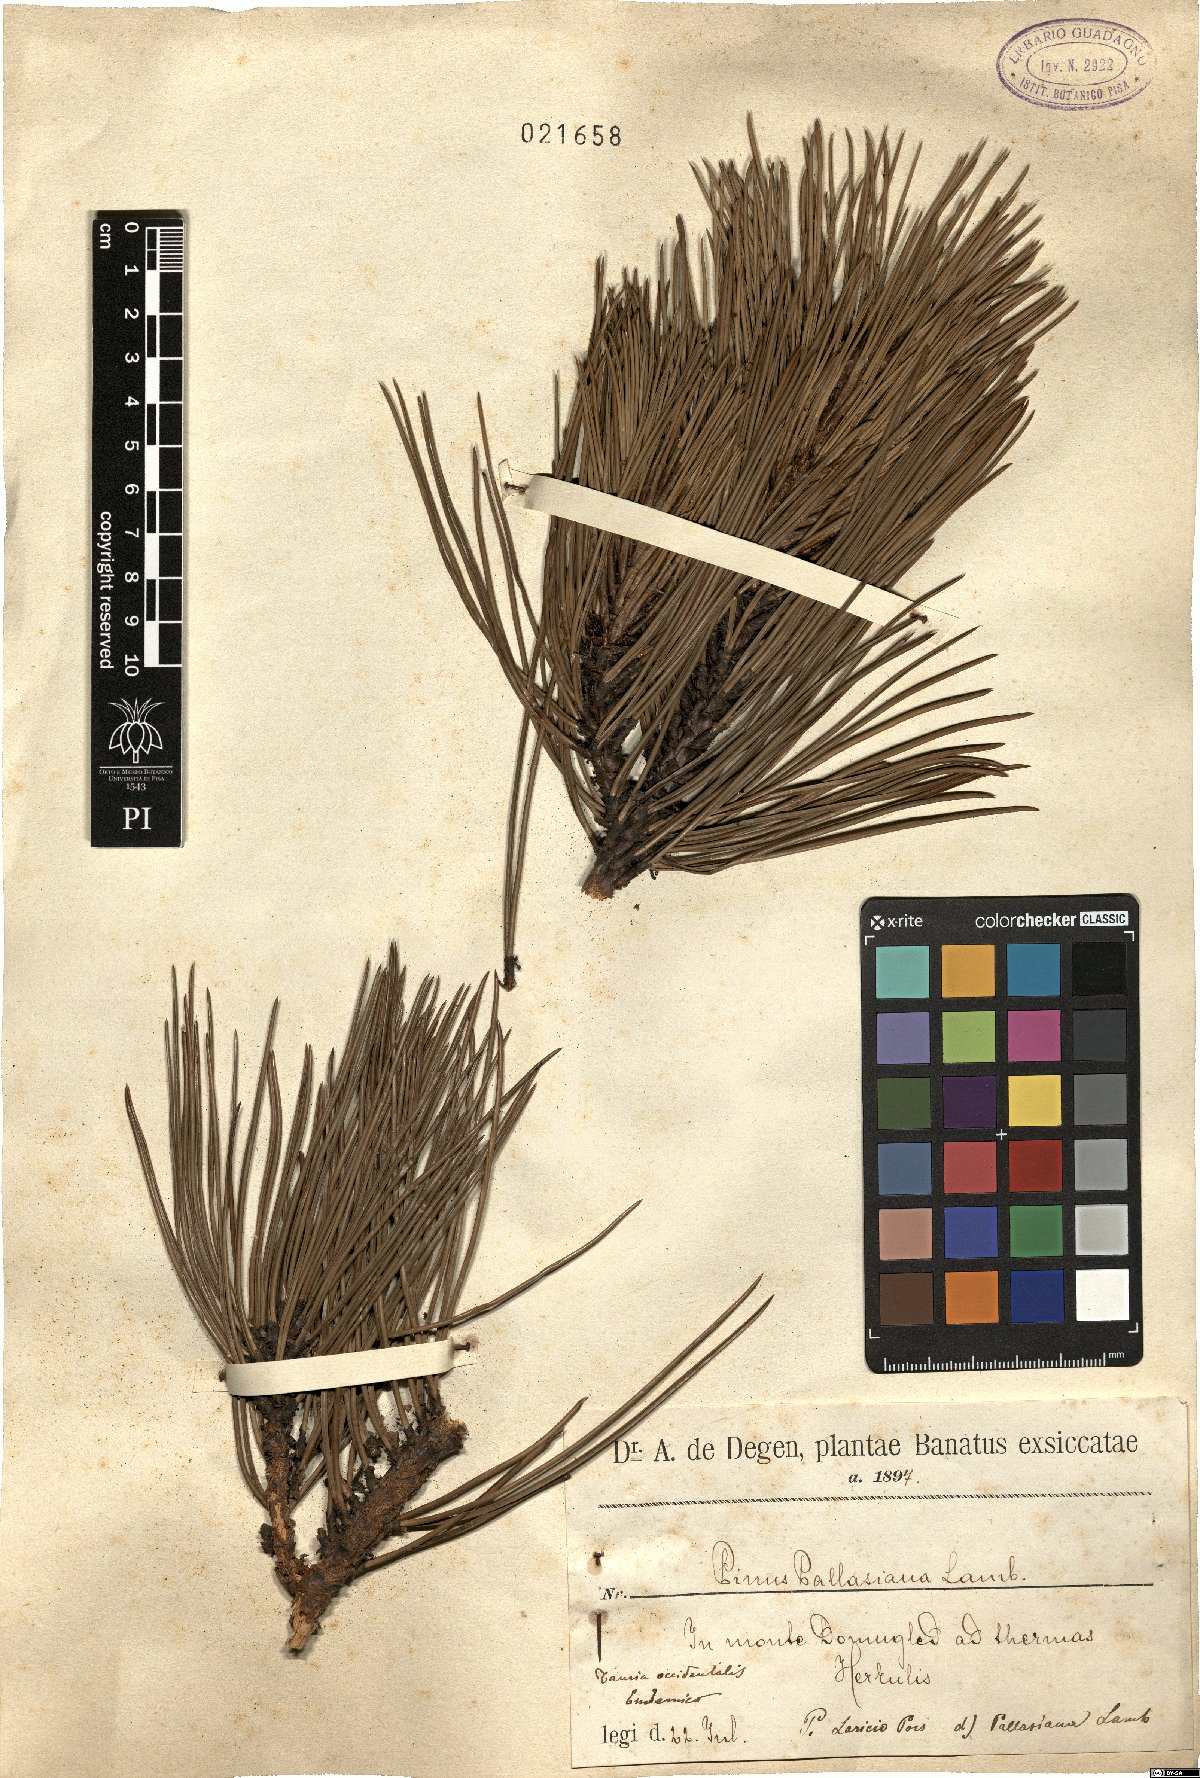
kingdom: Plantae
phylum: Tracheophyta
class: Pinopsida
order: Pinales
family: Pinaceae
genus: Pinus
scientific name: Pinus nigra
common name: Austrian pine
